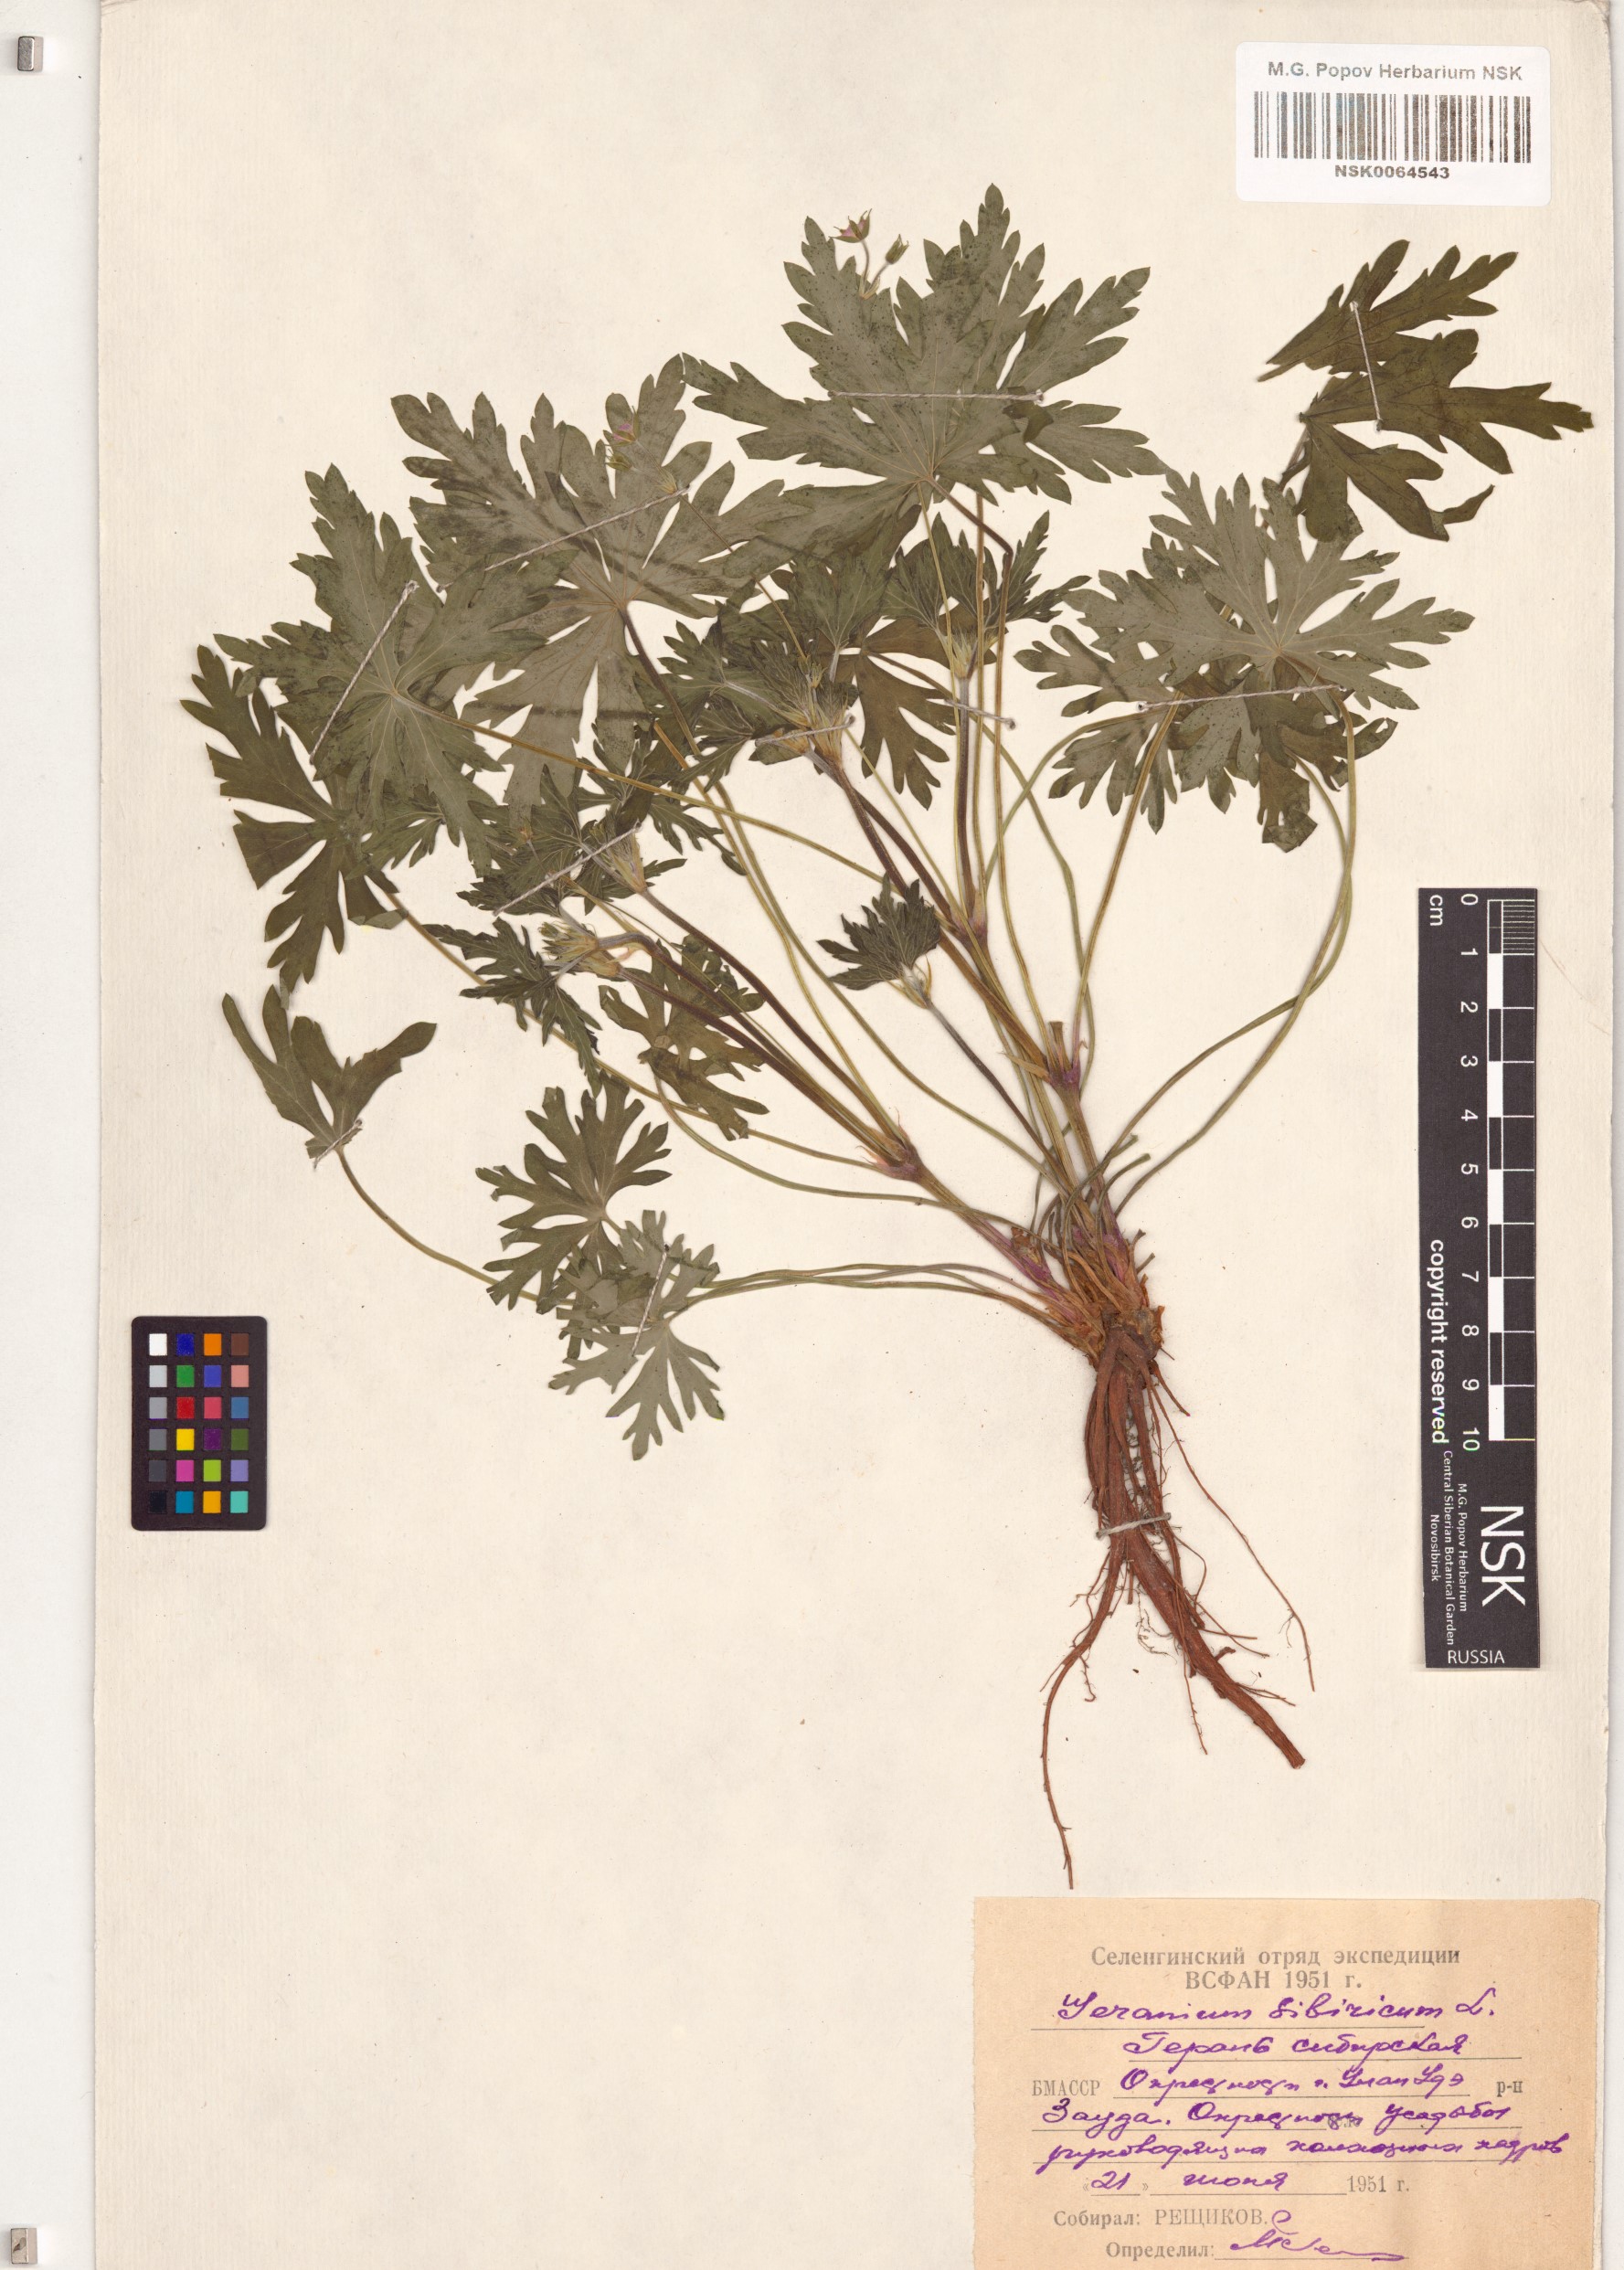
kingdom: Plantae
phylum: Tracheophyta
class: Magnoliopsida
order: Geraniales
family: Geraniaceae
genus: Geranium
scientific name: Geranium sibiricum
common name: Siberian crane's-bill
